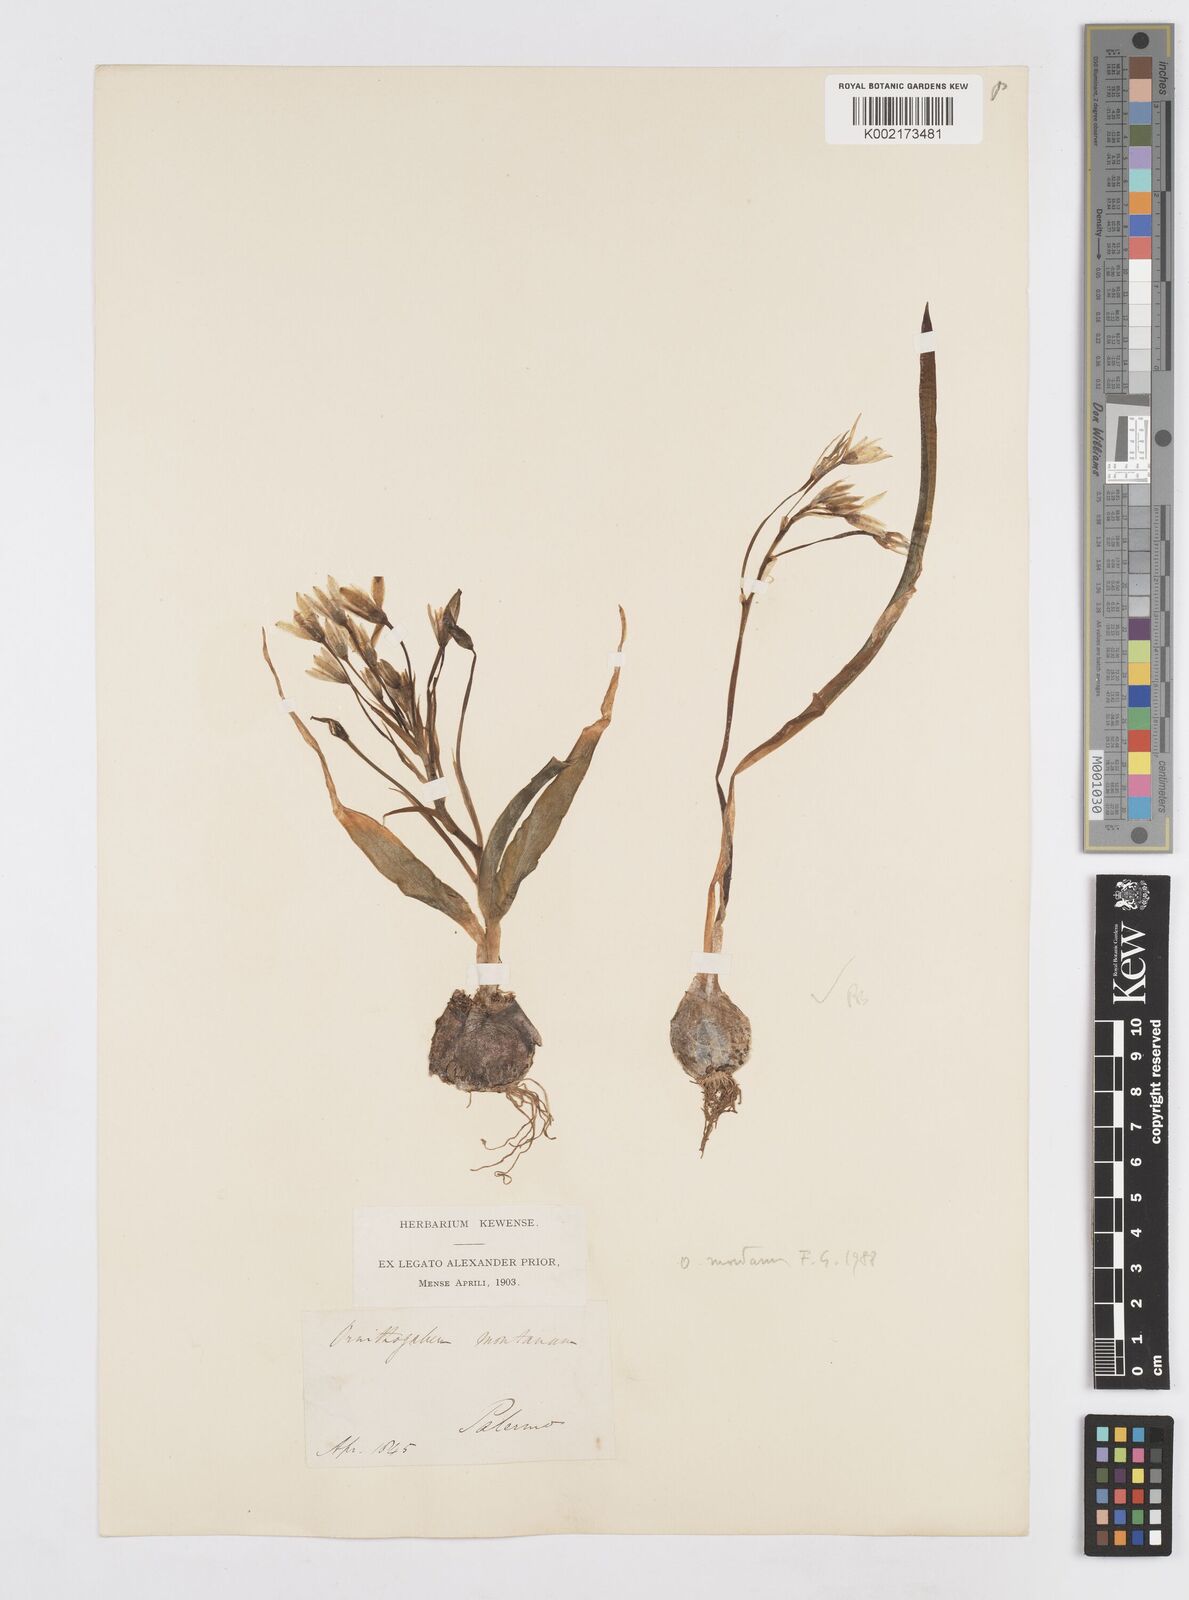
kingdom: Plantae
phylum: Tracheophyta
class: Liliopsida
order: Asparagales
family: Asparagaceae
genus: Ornithogalum
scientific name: Ornithogalum montanum
